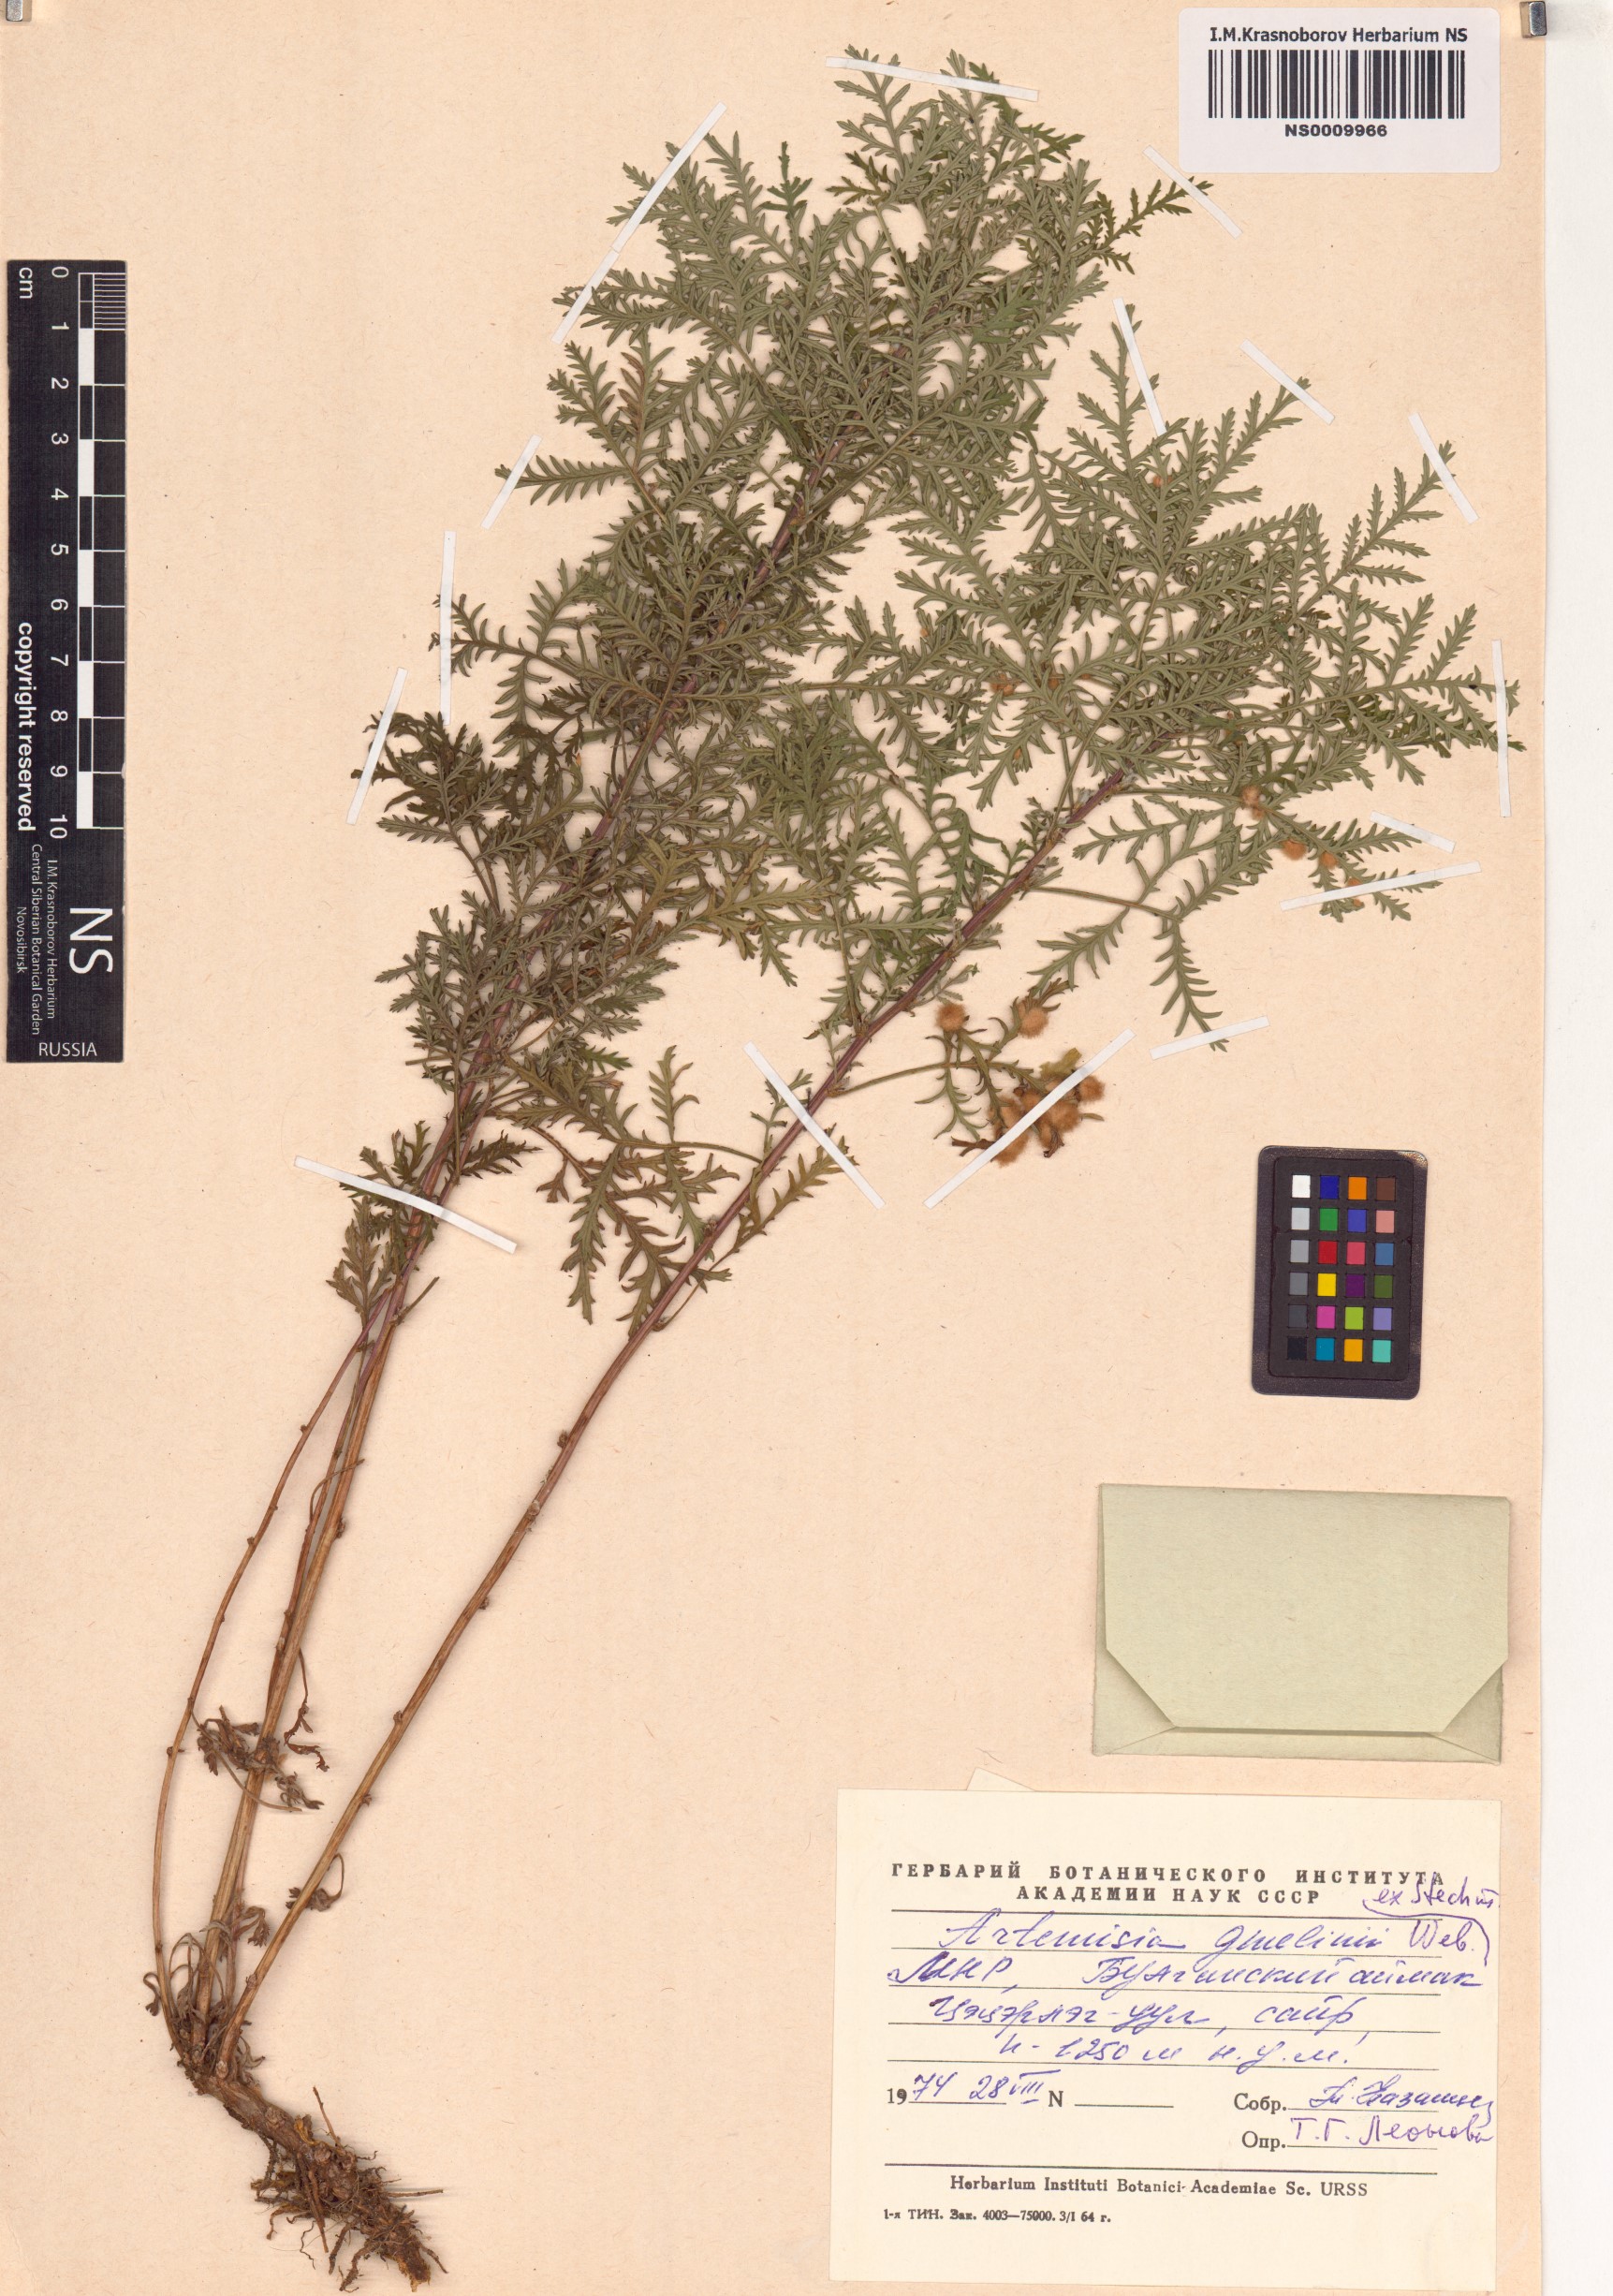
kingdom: Plantae
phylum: Tracheophyta
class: Magnoliopsida
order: Asterales
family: Asteraceae
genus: Artemisia
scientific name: Artemisia gmelinii
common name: Gmelin's wormwood
